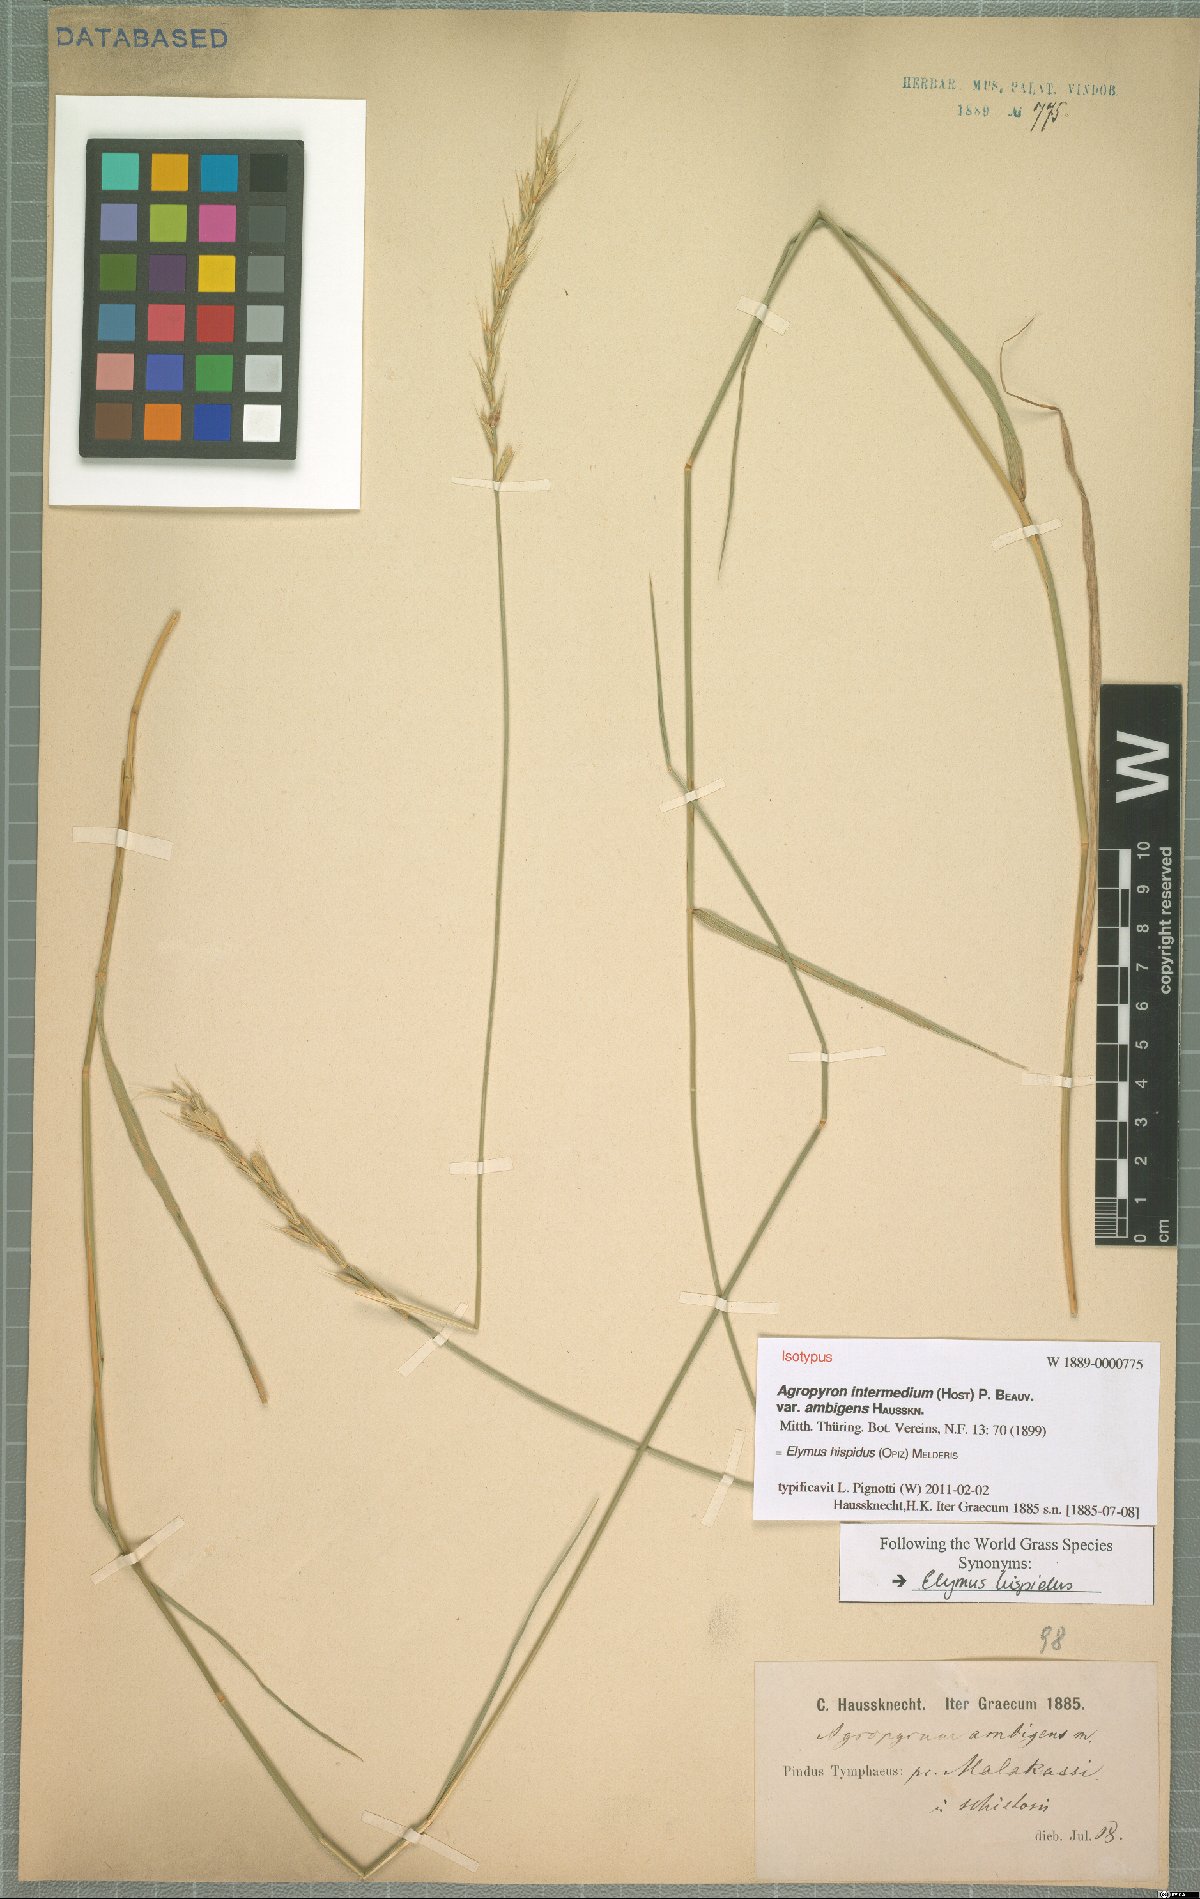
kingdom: Plantae
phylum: Tracheophyta
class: Liliopsida
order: Poales
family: Poaceae
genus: Thinopyrum
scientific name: Thinopyrum intermedium
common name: Intermediate wheatgrass
